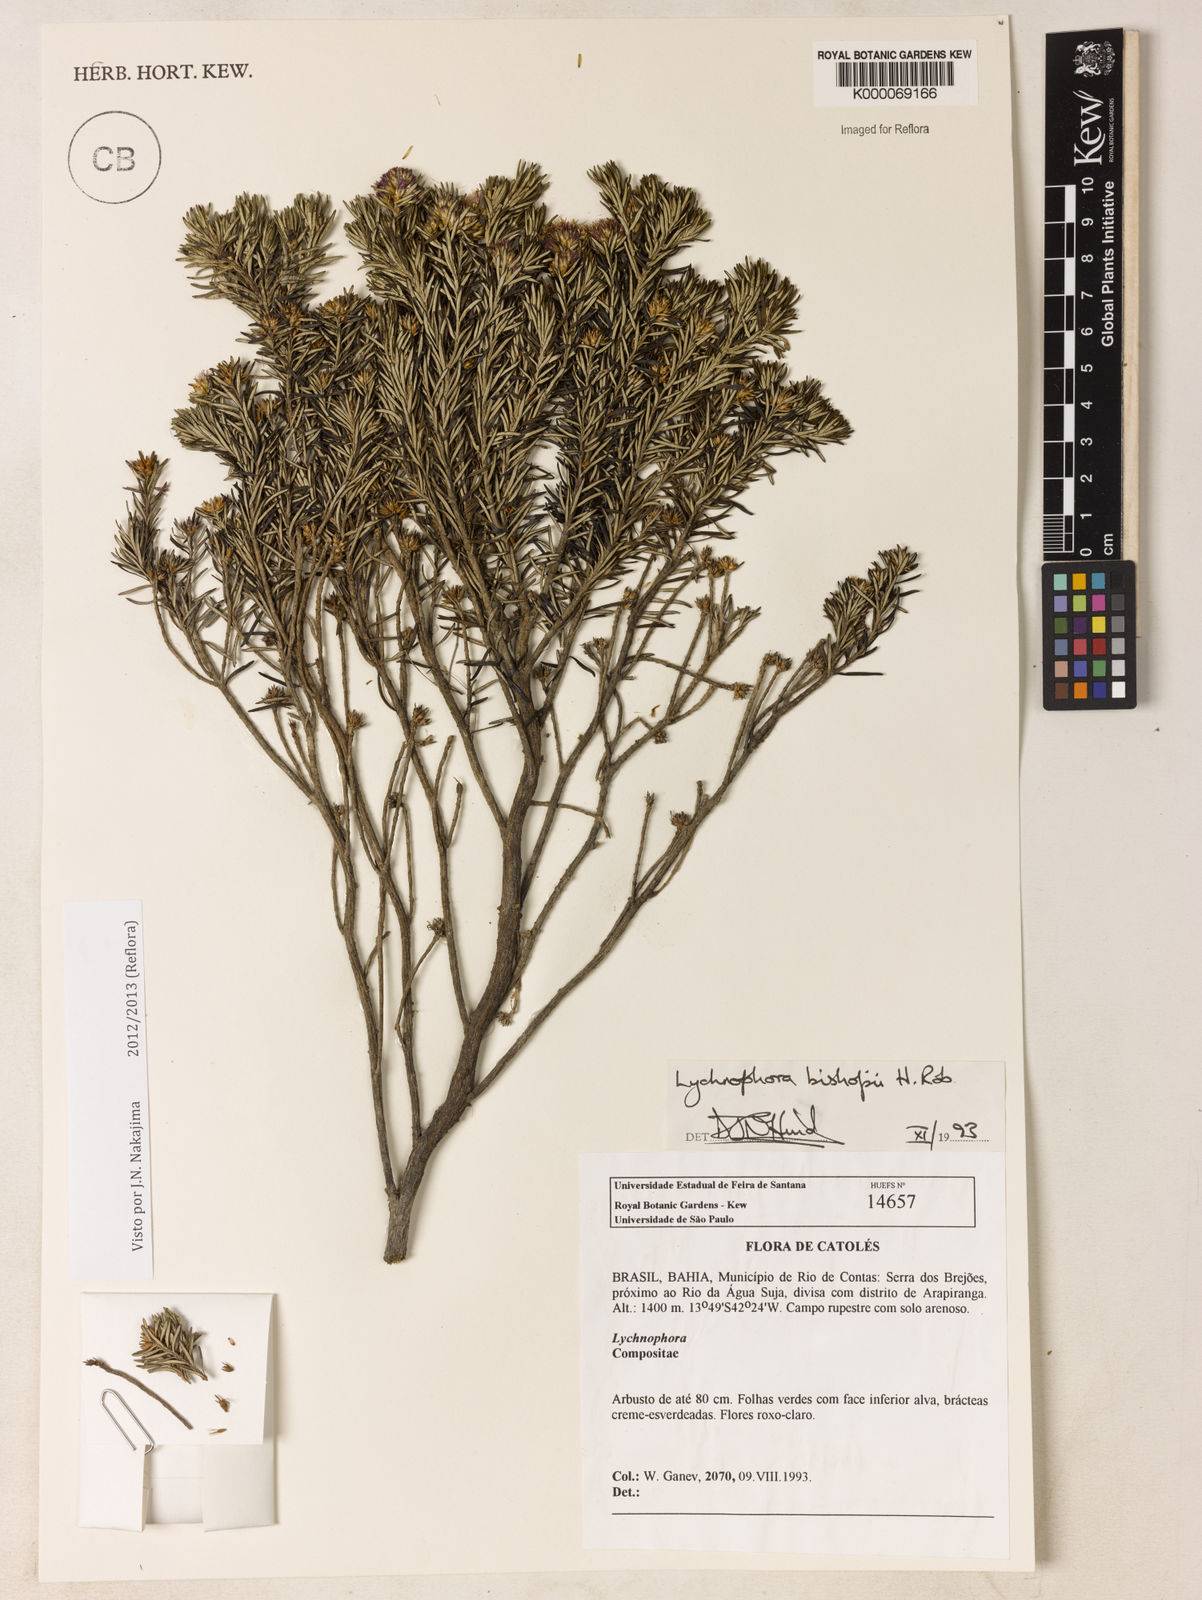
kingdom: Plantae
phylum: Tracheophyta
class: Magnoliopsida
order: Asterales
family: Asteraceae
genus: Lychnophorella
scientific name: Lychnophorella bishopii
